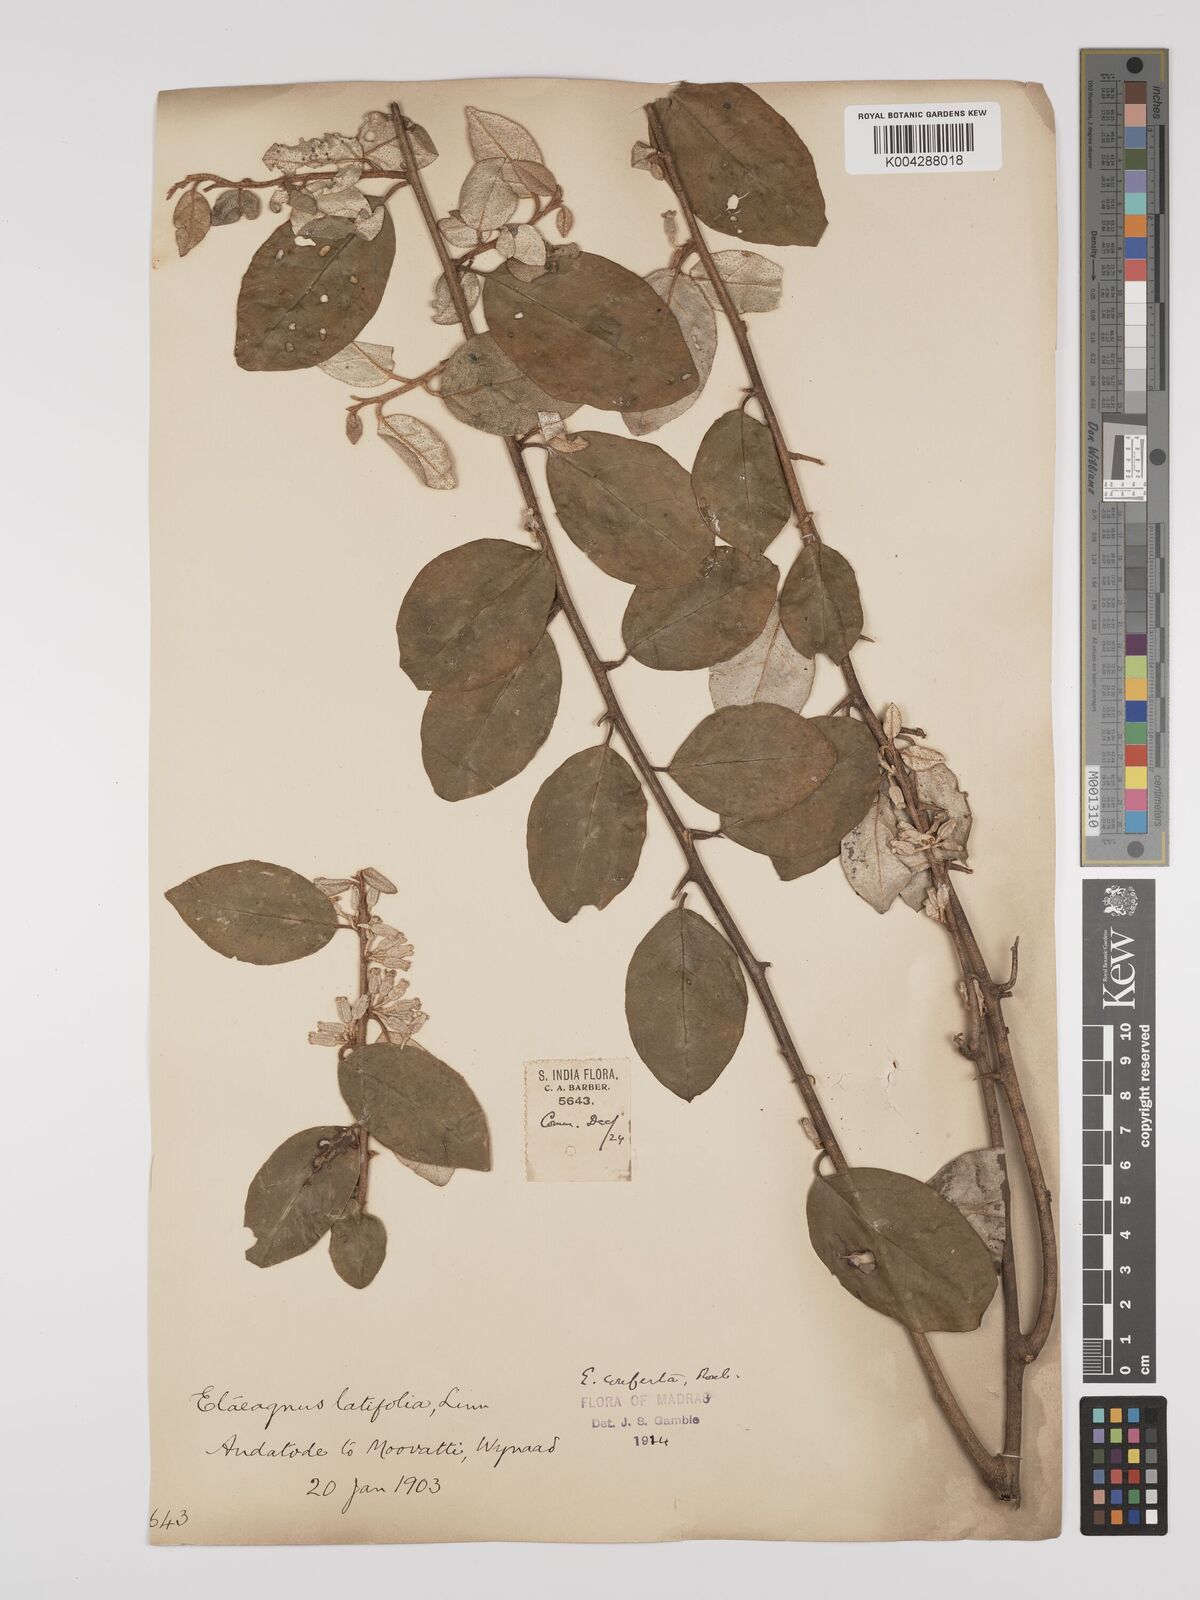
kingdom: Plantae
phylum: Tracheophyta
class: Magnoliopsida
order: Rosales
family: Elaeagnaceae
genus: Elaeagnus
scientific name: Elaeagnus latifolia
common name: Oleaster
